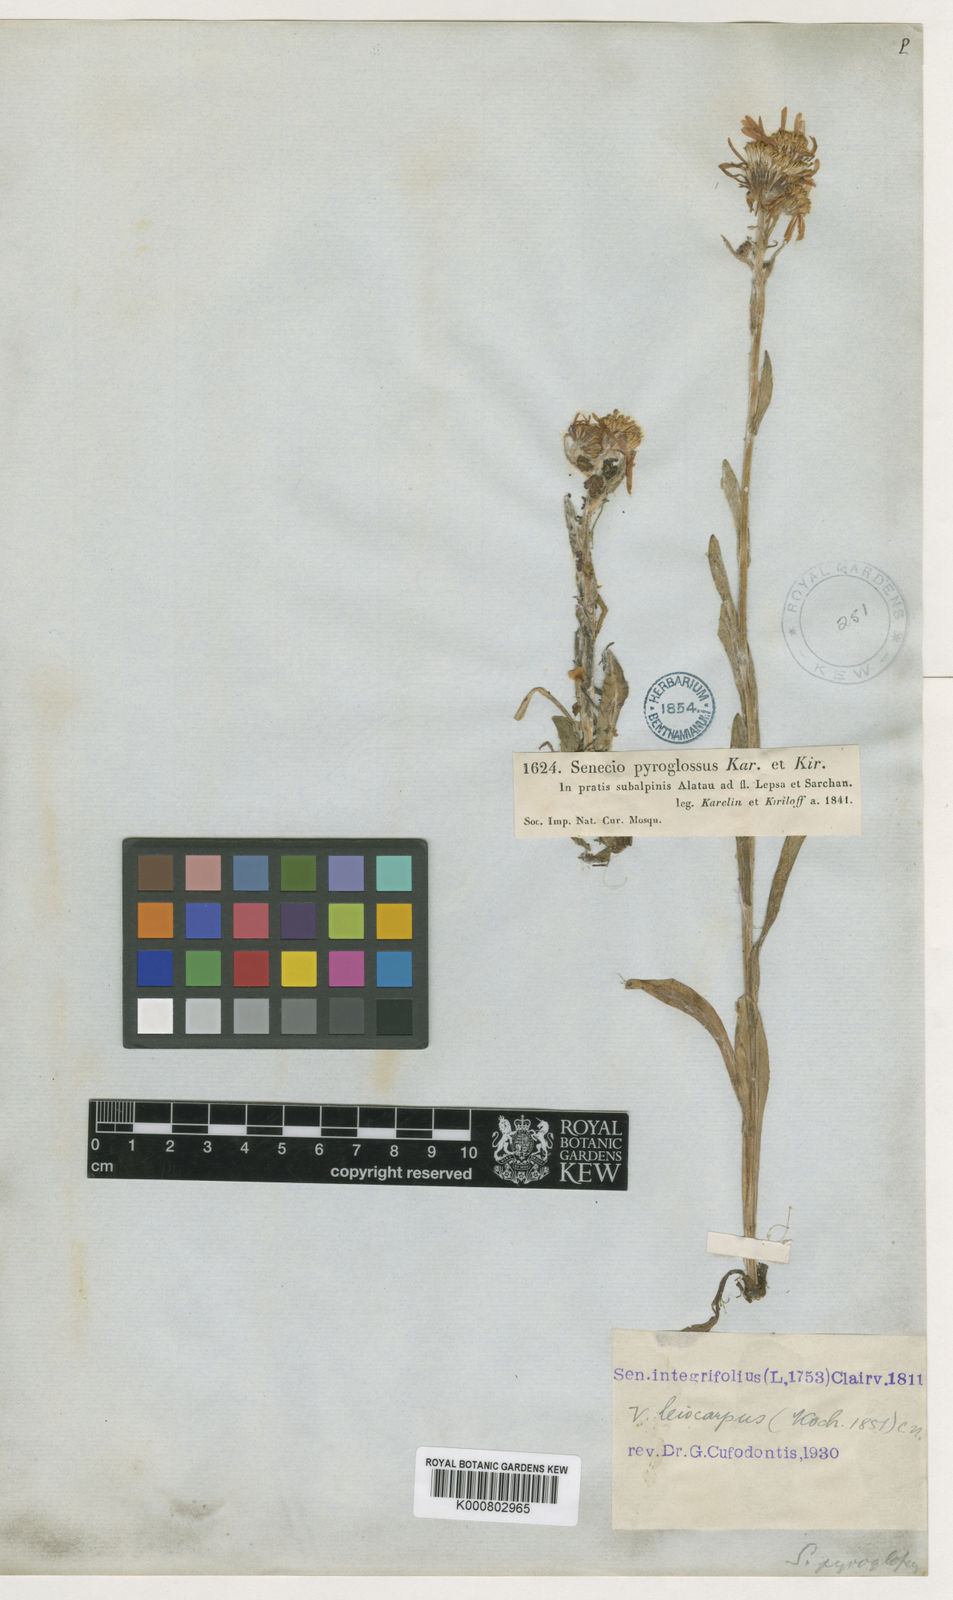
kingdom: Plantae
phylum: Tracheophyta
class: Magnoliopsida
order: Asterales
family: Asteraceae
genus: Tephroseris
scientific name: Tephroseris
